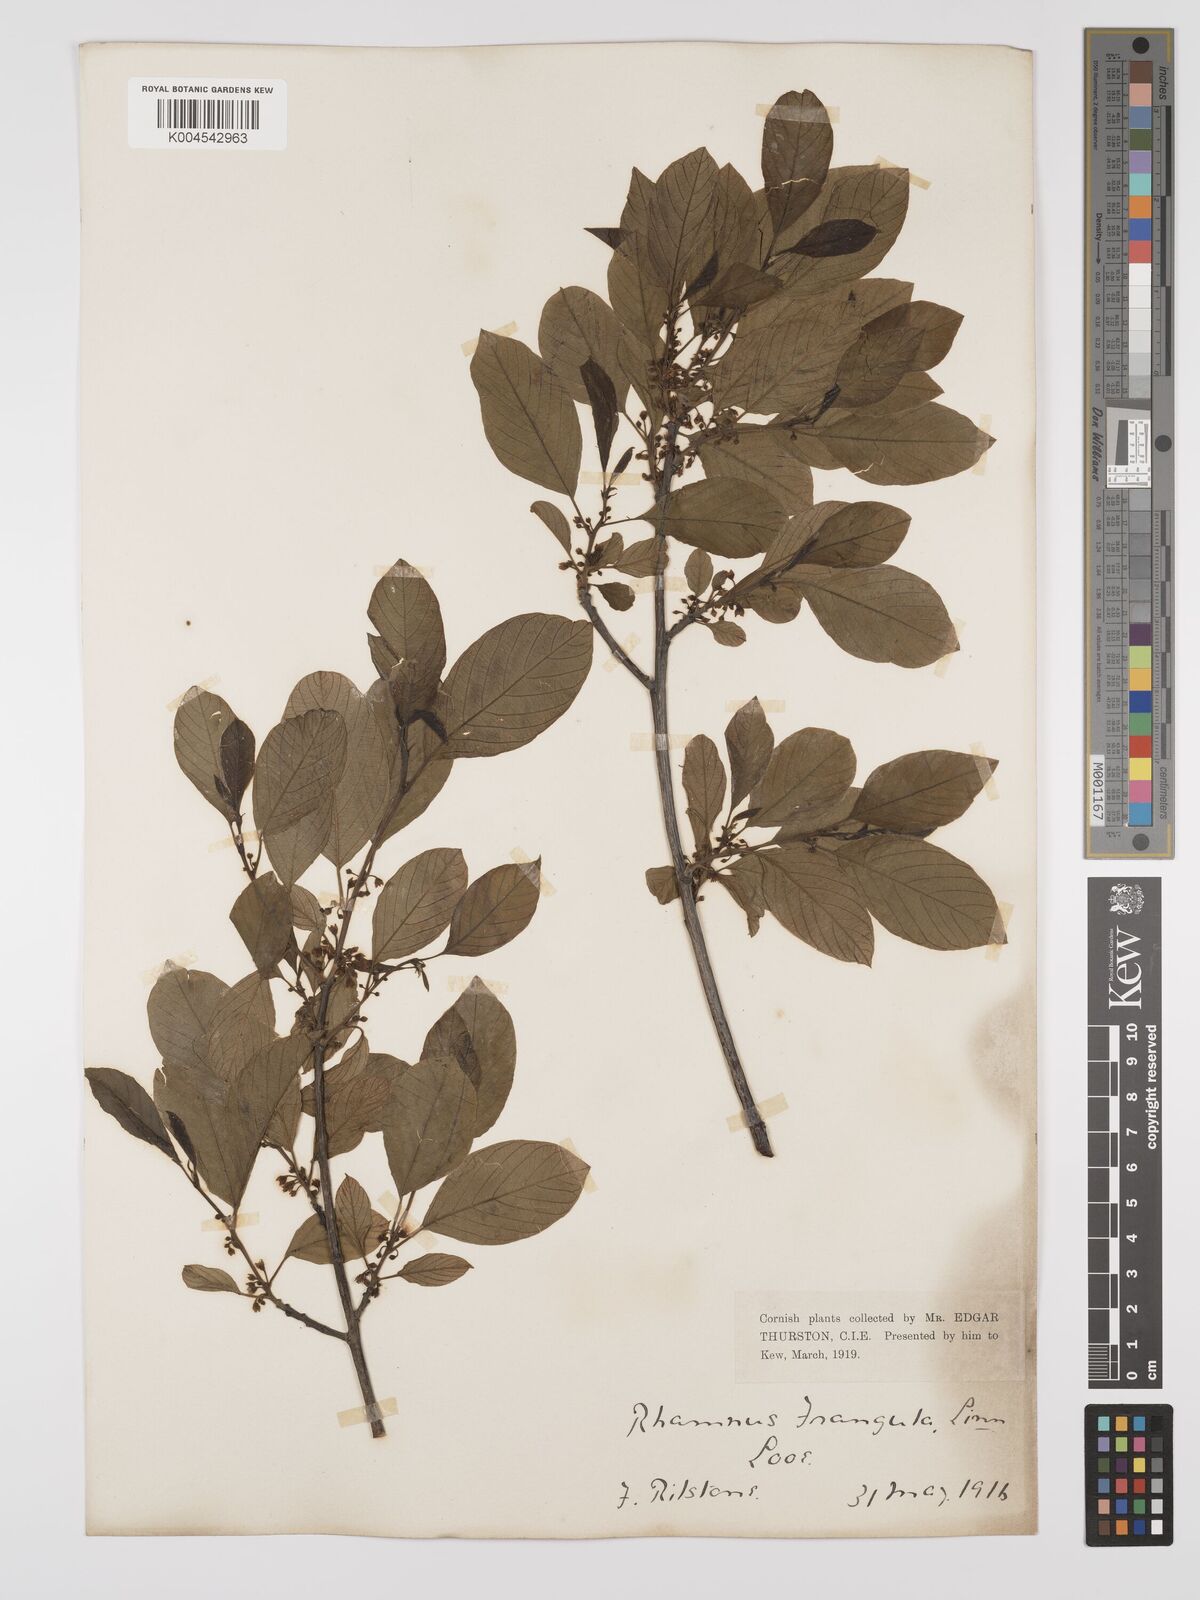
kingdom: Plantae
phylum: Tracheophyta
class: Magnoliopsida
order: Rosales
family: Rhamnaceae
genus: Frangula
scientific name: Frangula alnus
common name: Alder buckthorn
